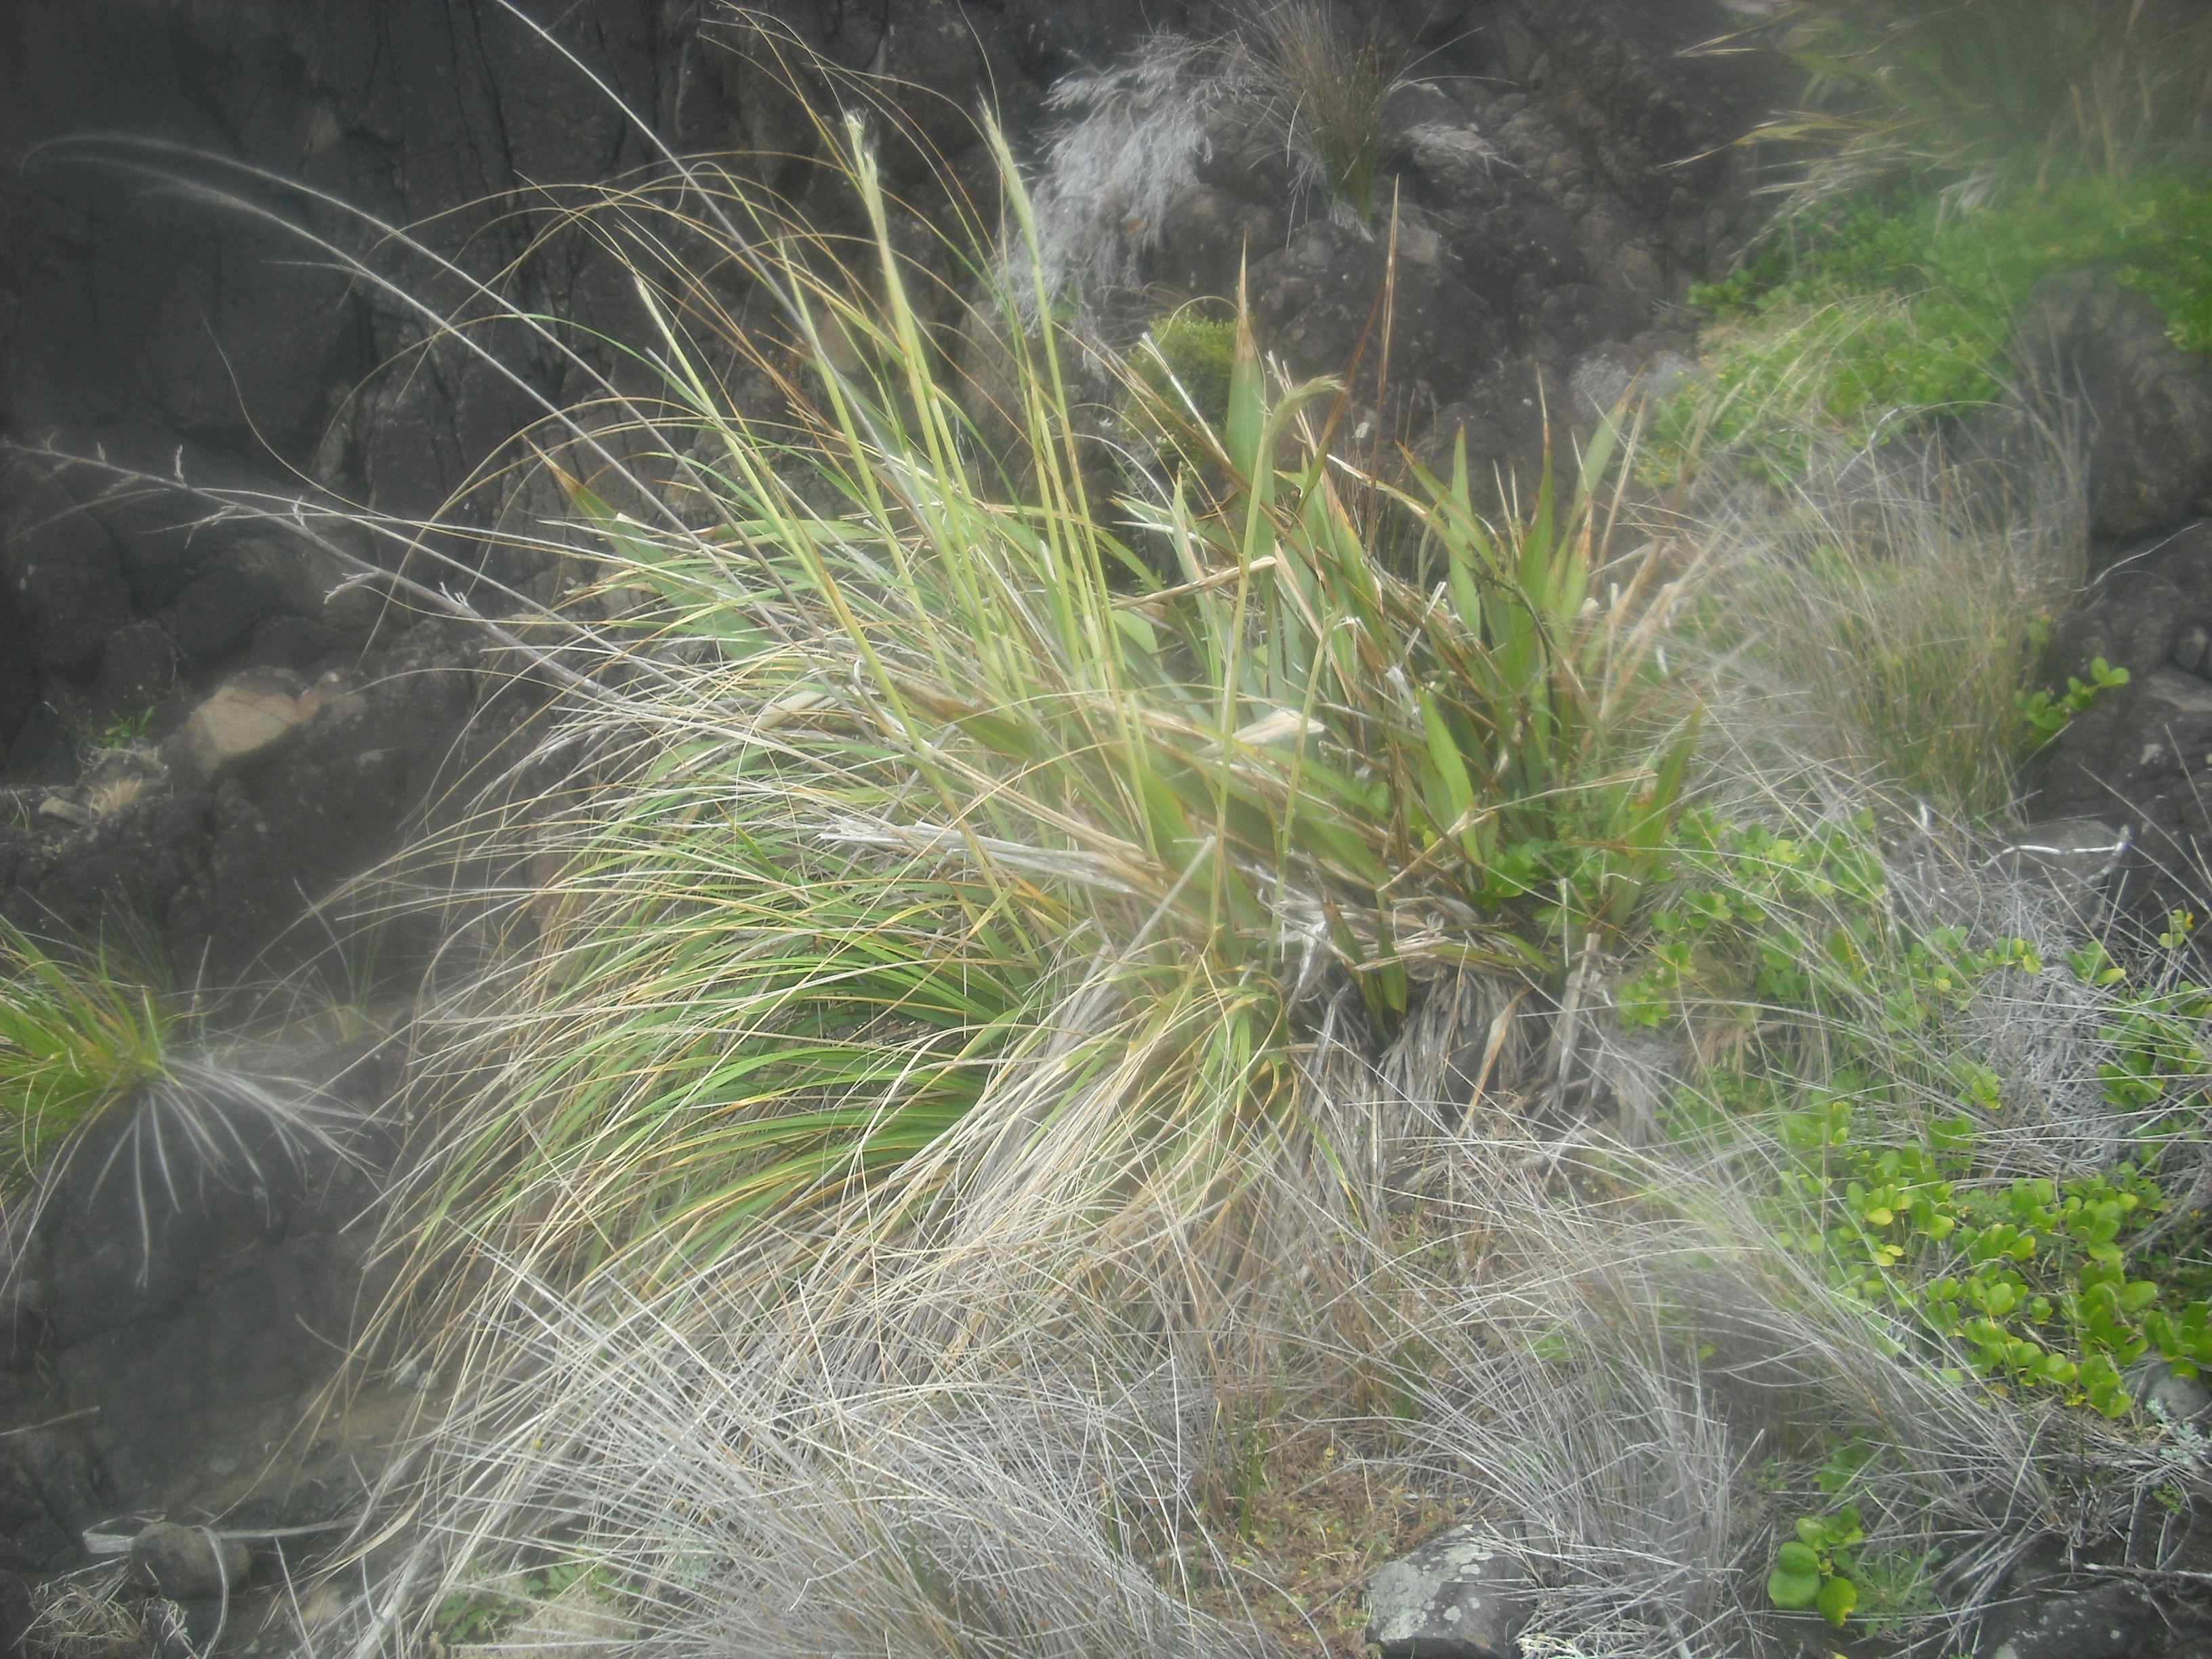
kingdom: Plantae
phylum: Tracheophyta
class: Liliopsida
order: Poales
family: Poaceae
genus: Austroderia
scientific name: Austroderia splendens
